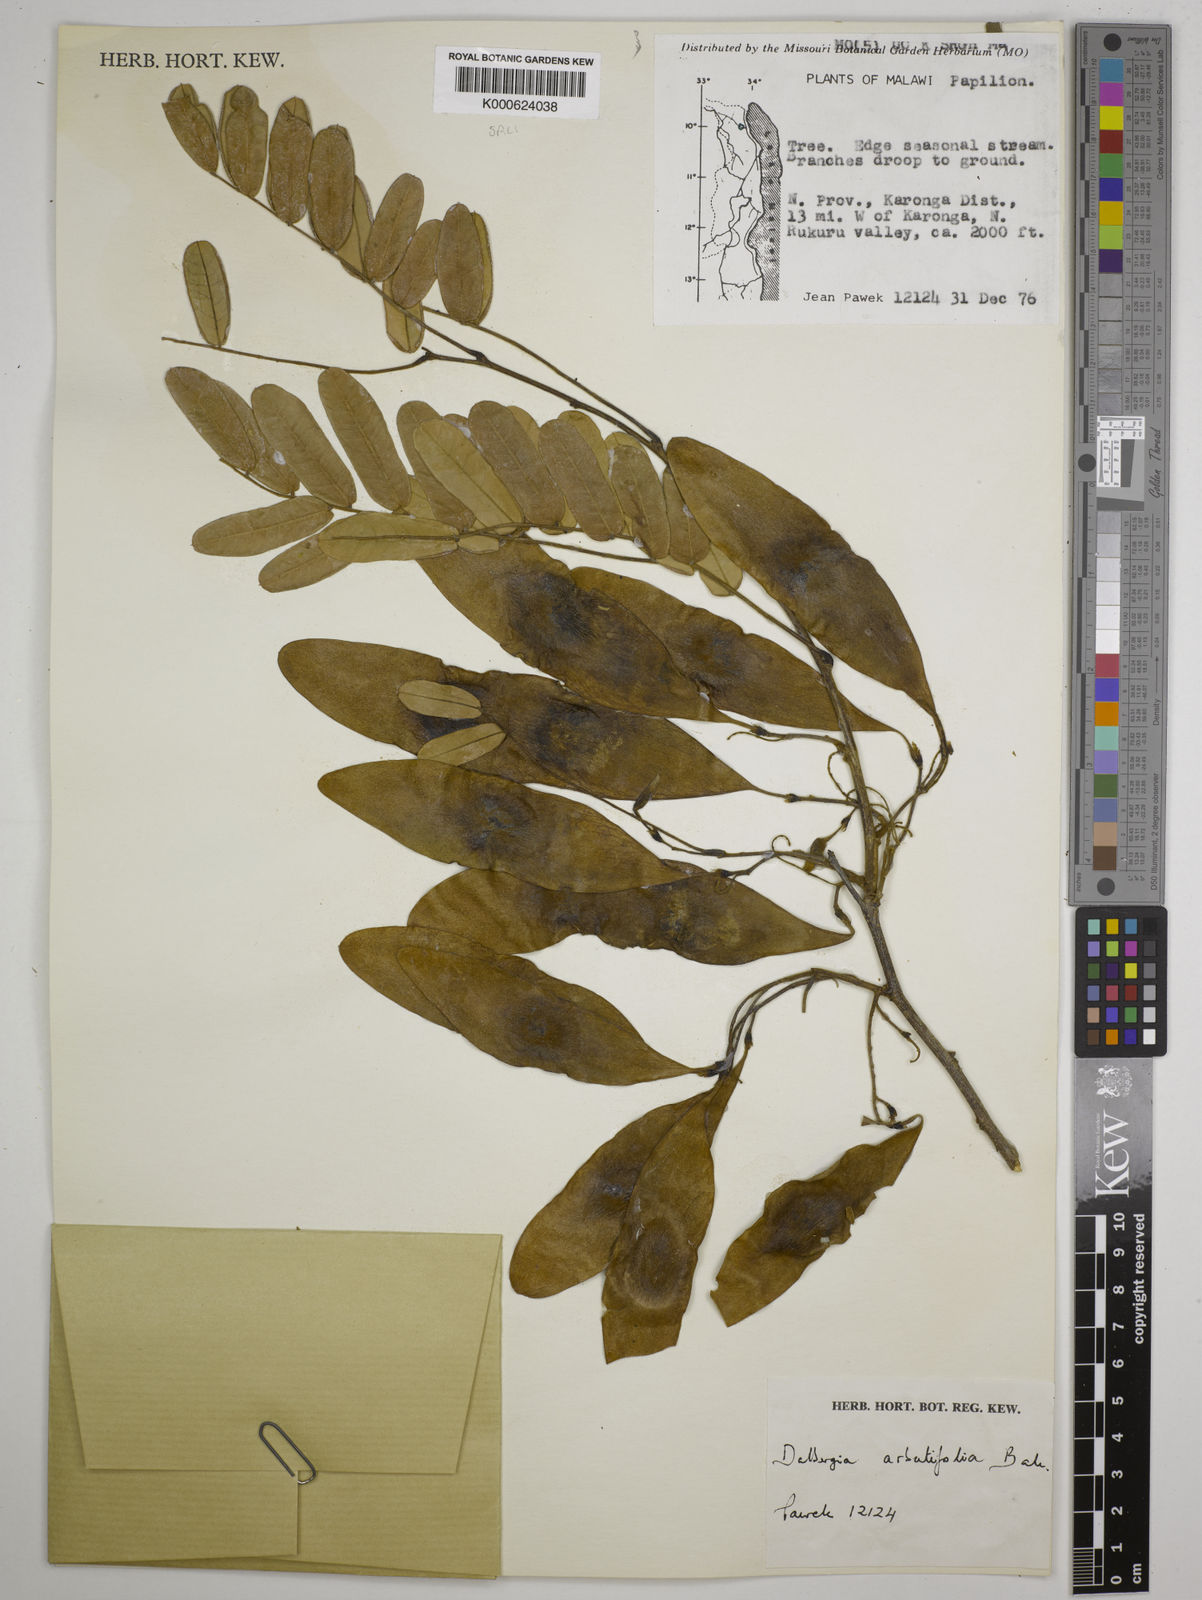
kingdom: Plantae
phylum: Tracheophyta
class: Magnoliopsida
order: Fabales
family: Fabaceae
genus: Dalbergia
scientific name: Dalbergia arbutifolia
